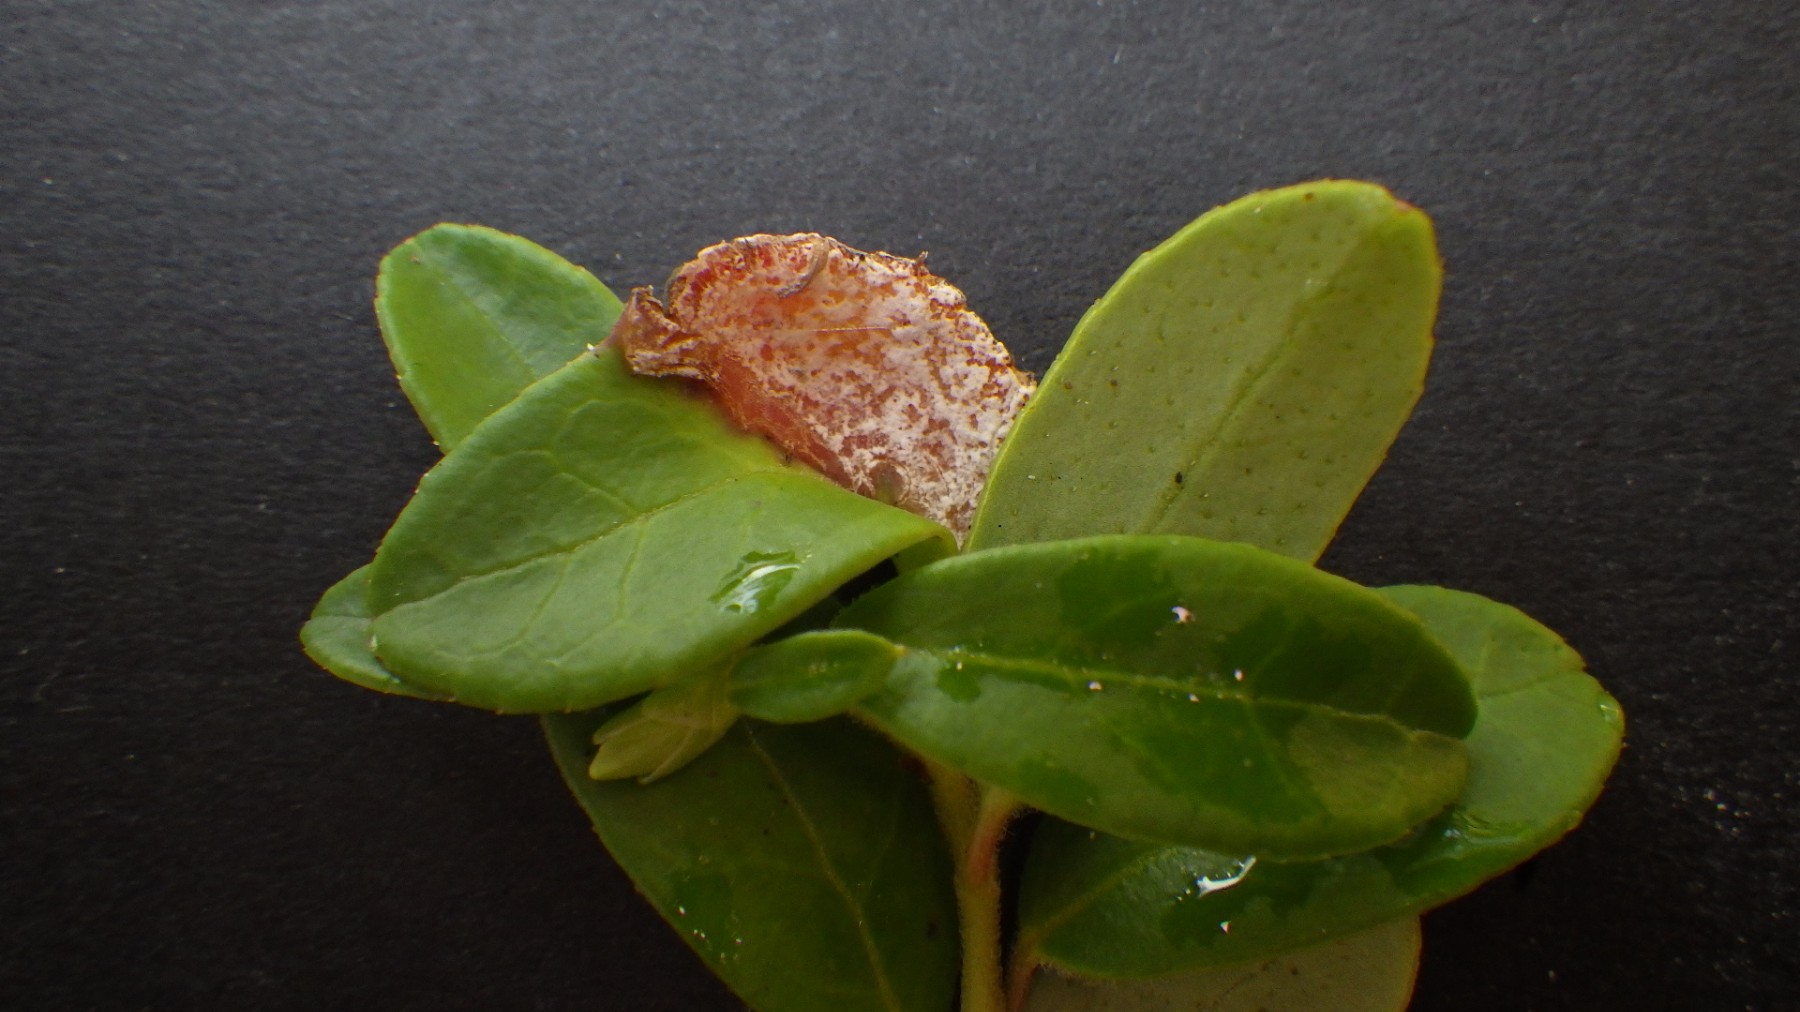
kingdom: Fungi
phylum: Basidiomycota
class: Exobasidiomycetes
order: Exobasidiales
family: Exobasidiaceae
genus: Exobasidium
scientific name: Exobasidium vaccinii
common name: tyttebærblad-bøllesvamp
